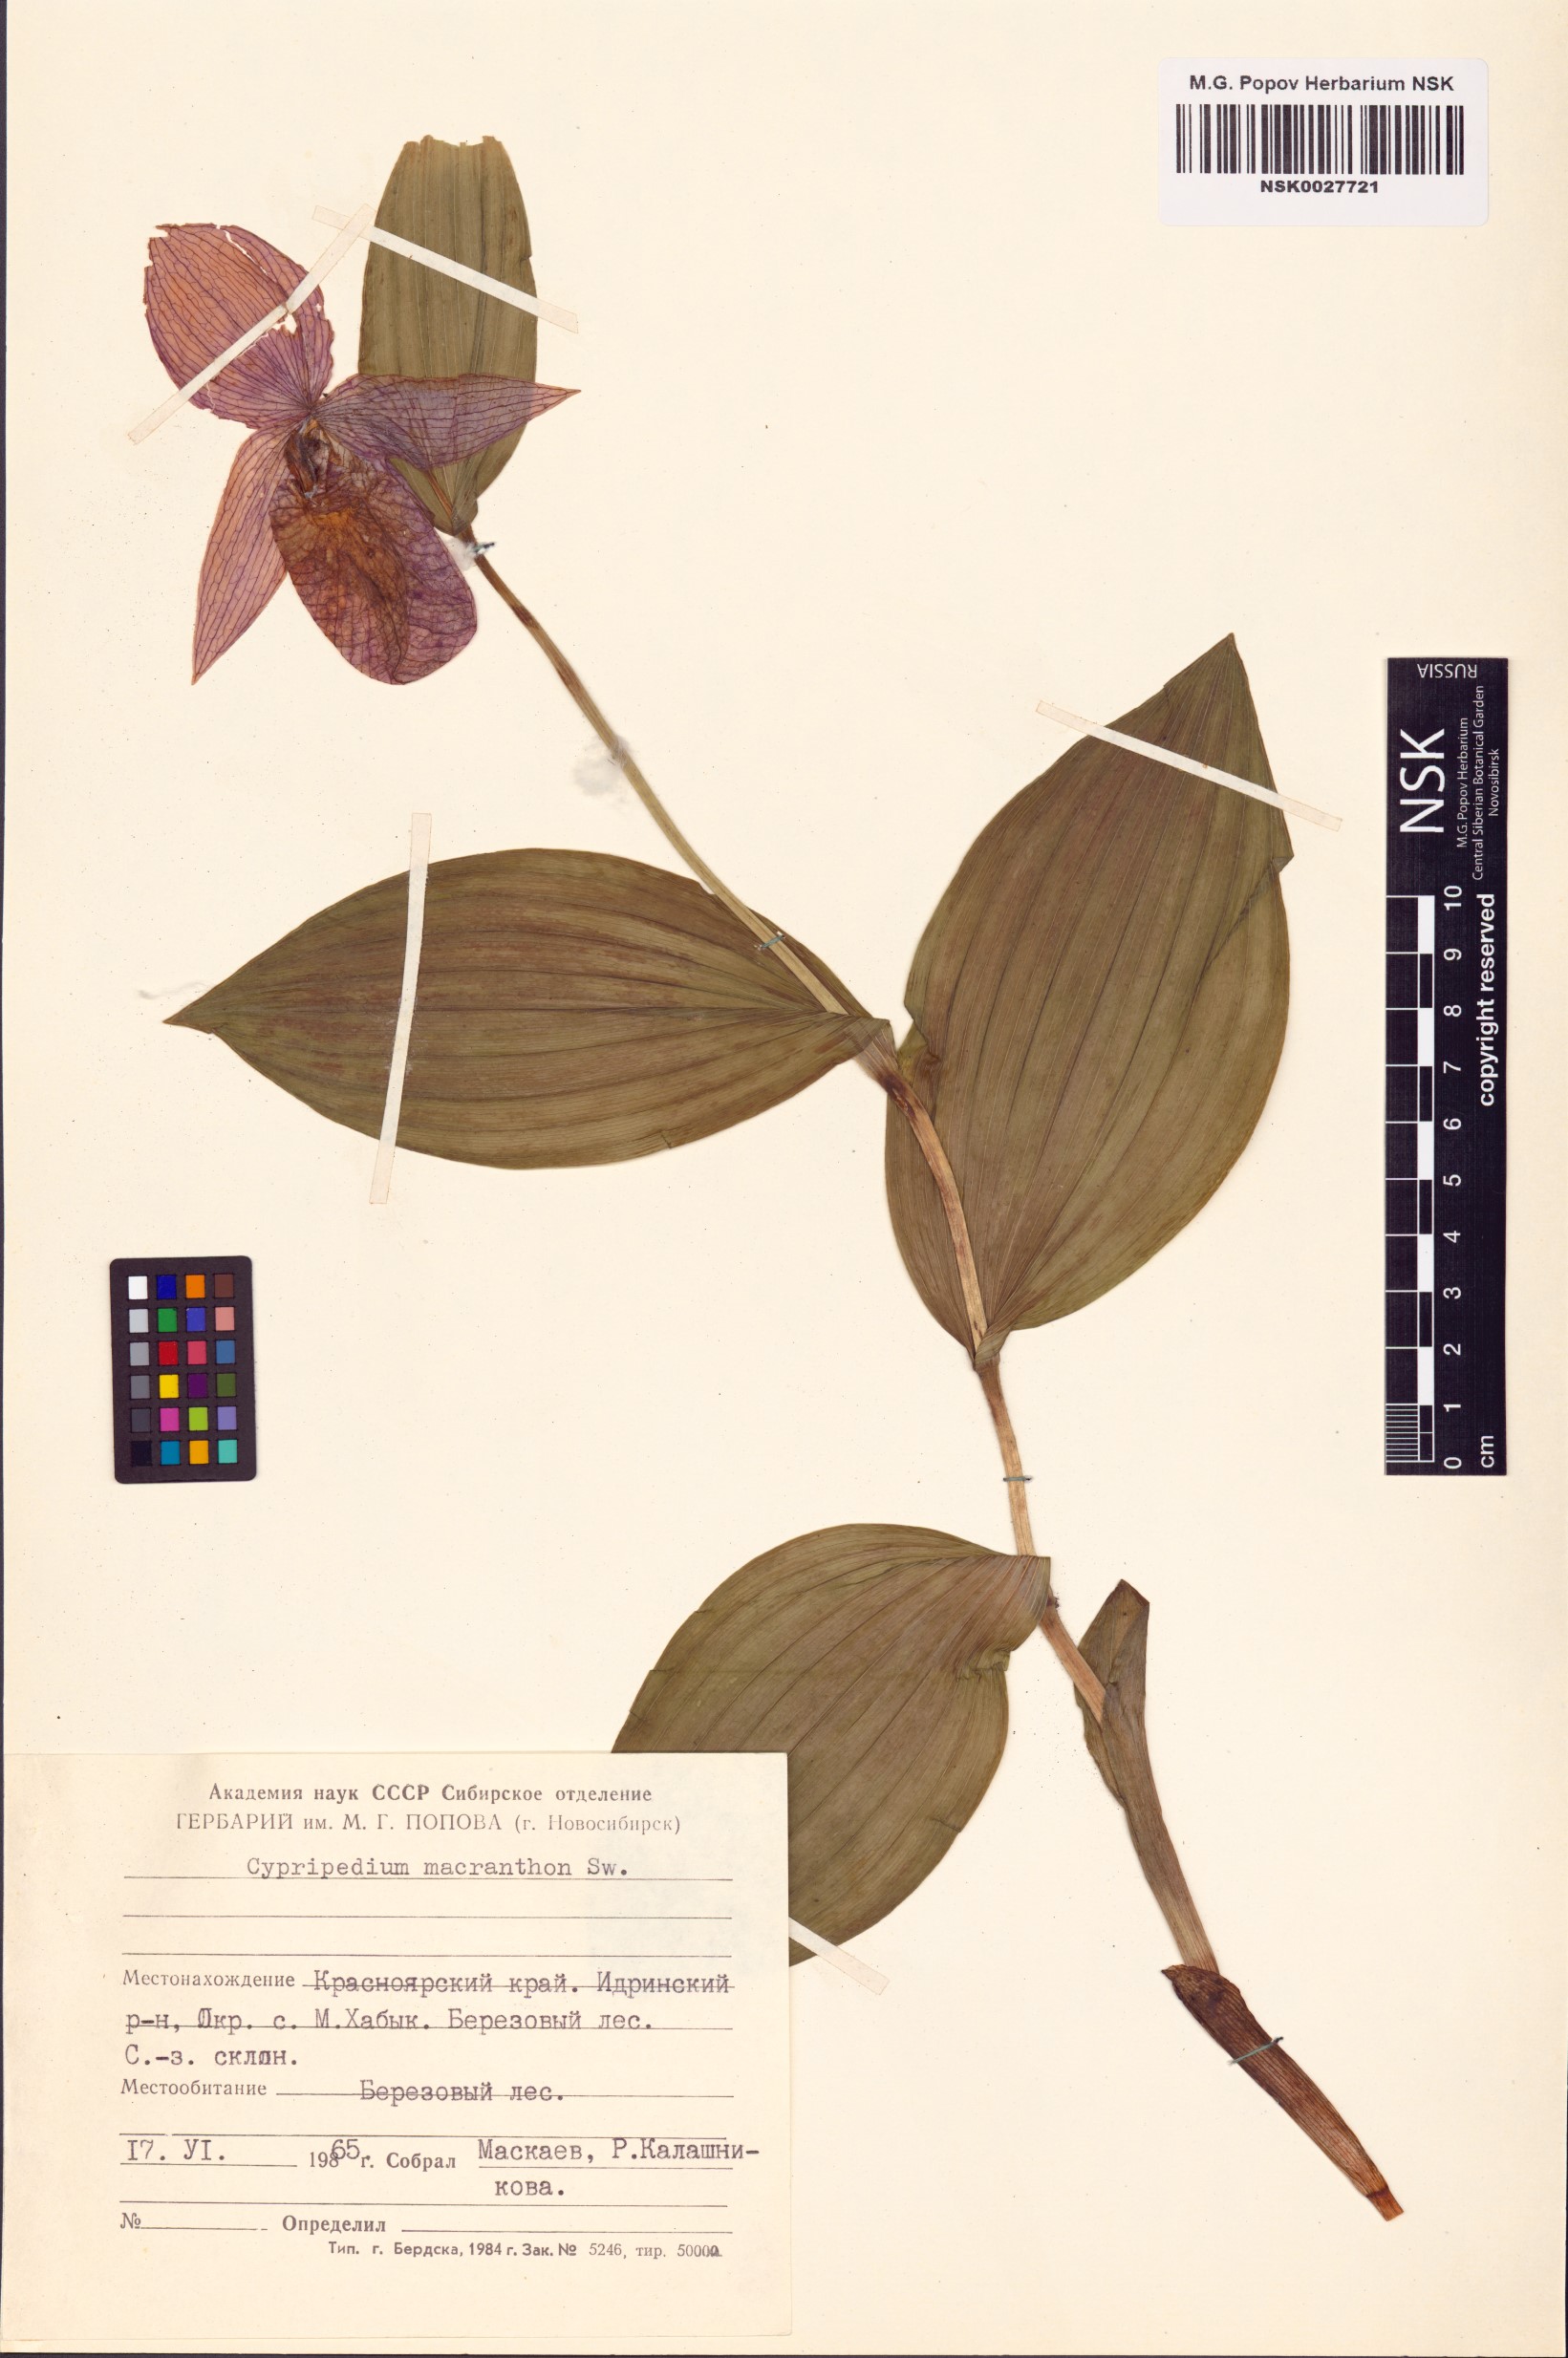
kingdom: Plantae
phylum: Tracheophyta
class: Liliopsida
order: Asparagales
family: Orchidaceae
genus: Cypripedium
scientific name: Cypripedium macranthos
